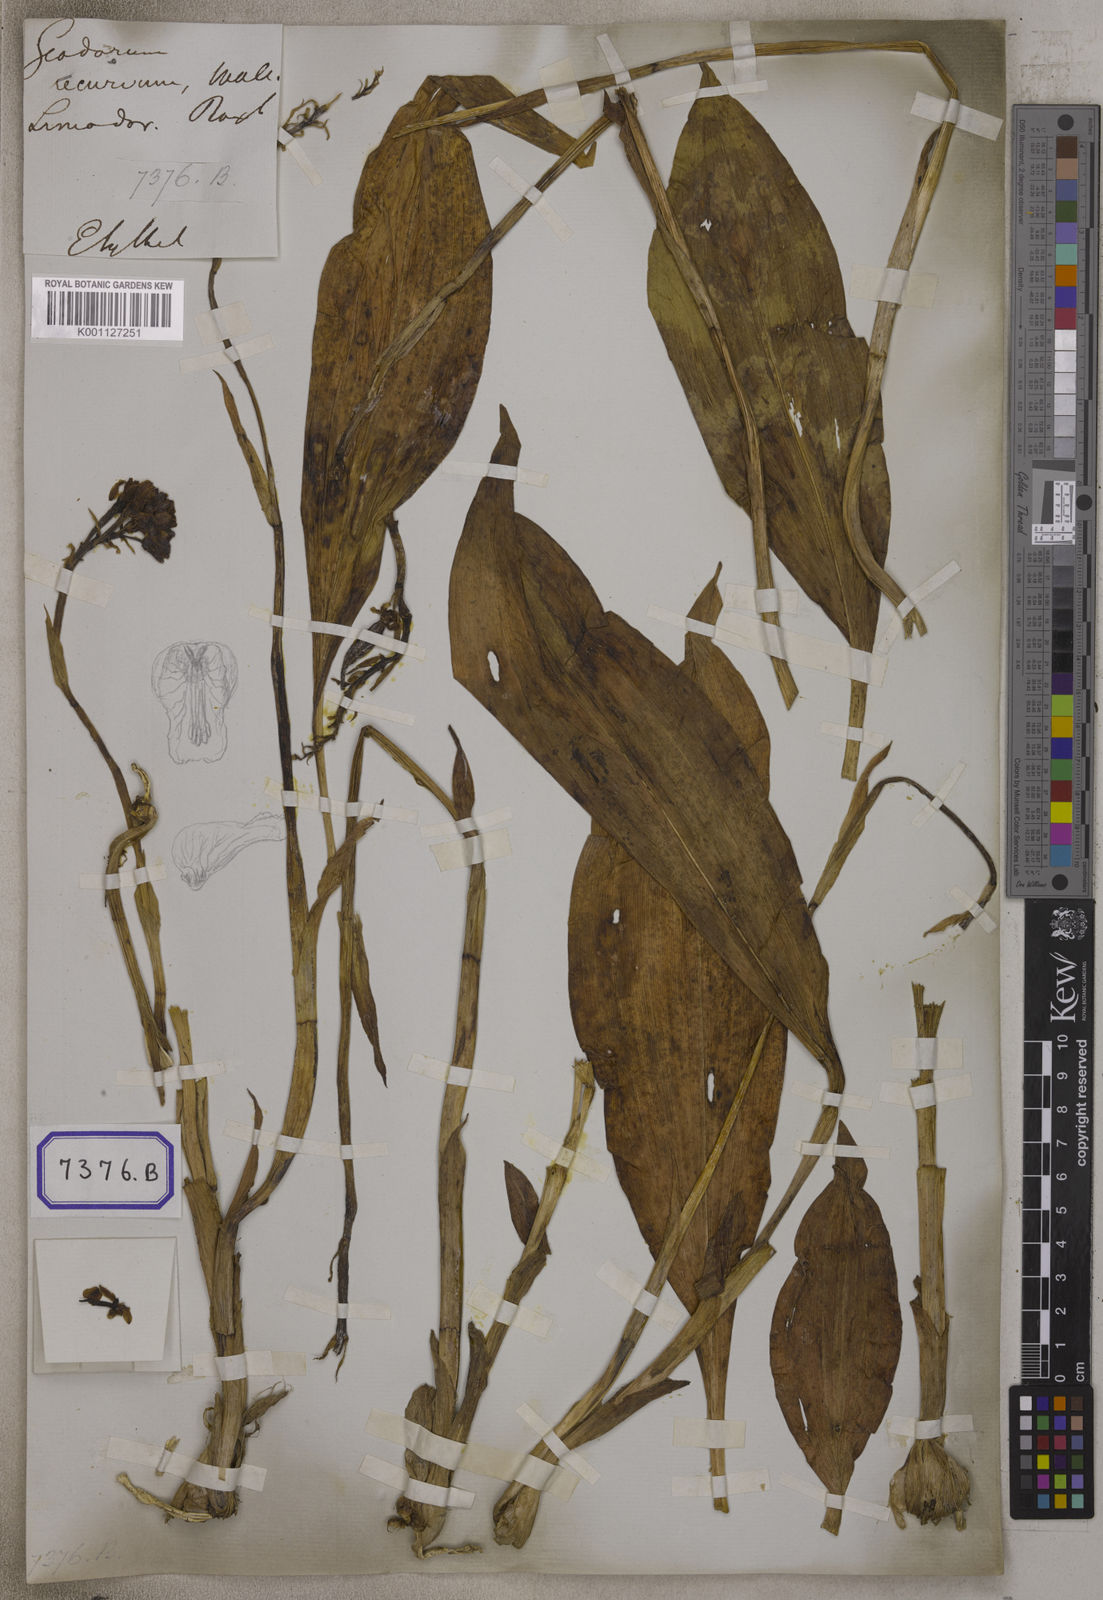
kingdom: Plantae
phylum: Tracheophyta
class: Liliopsida
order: Asparagales
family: Orchidaceae
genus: Eulophia
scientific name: Eulophia recurva
